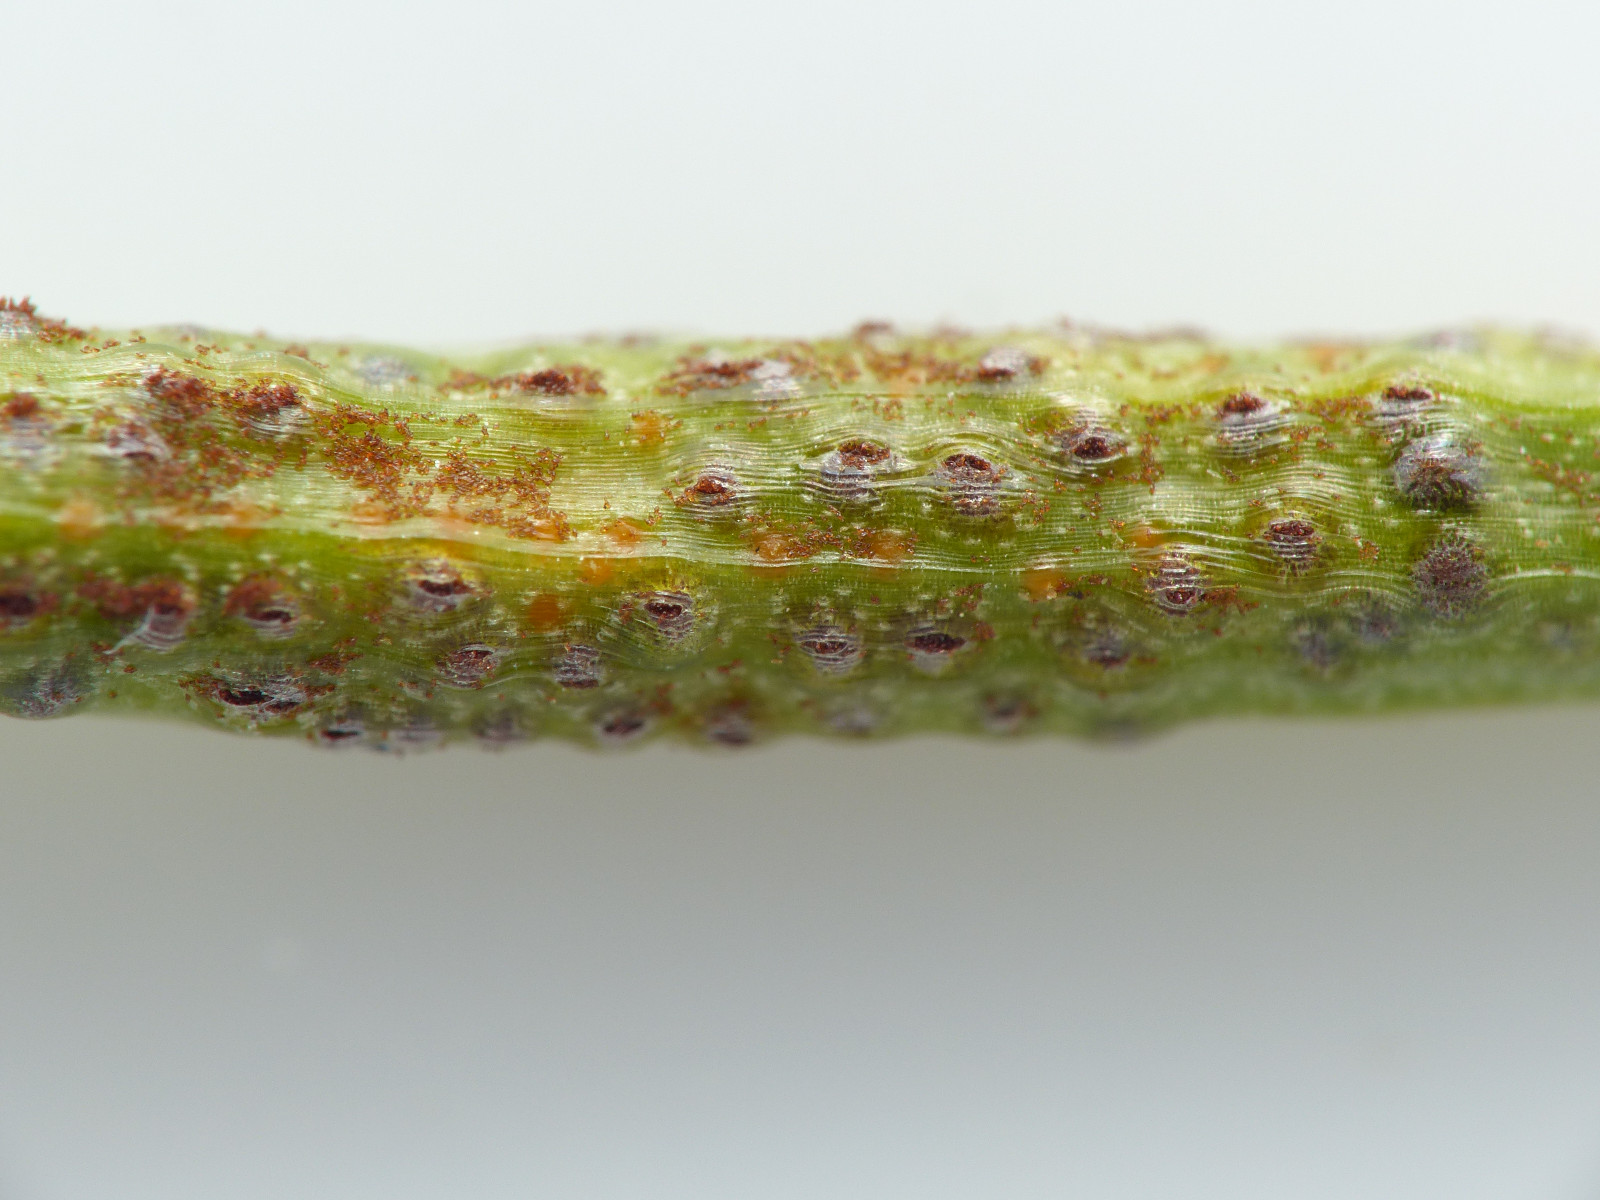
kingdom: Fungi
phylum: Basidiomycota
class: Pucciniomycetes
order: Pucciniales
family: Pucciniaceae
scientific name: Pucciniaceae
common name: rustsvampfamilien
